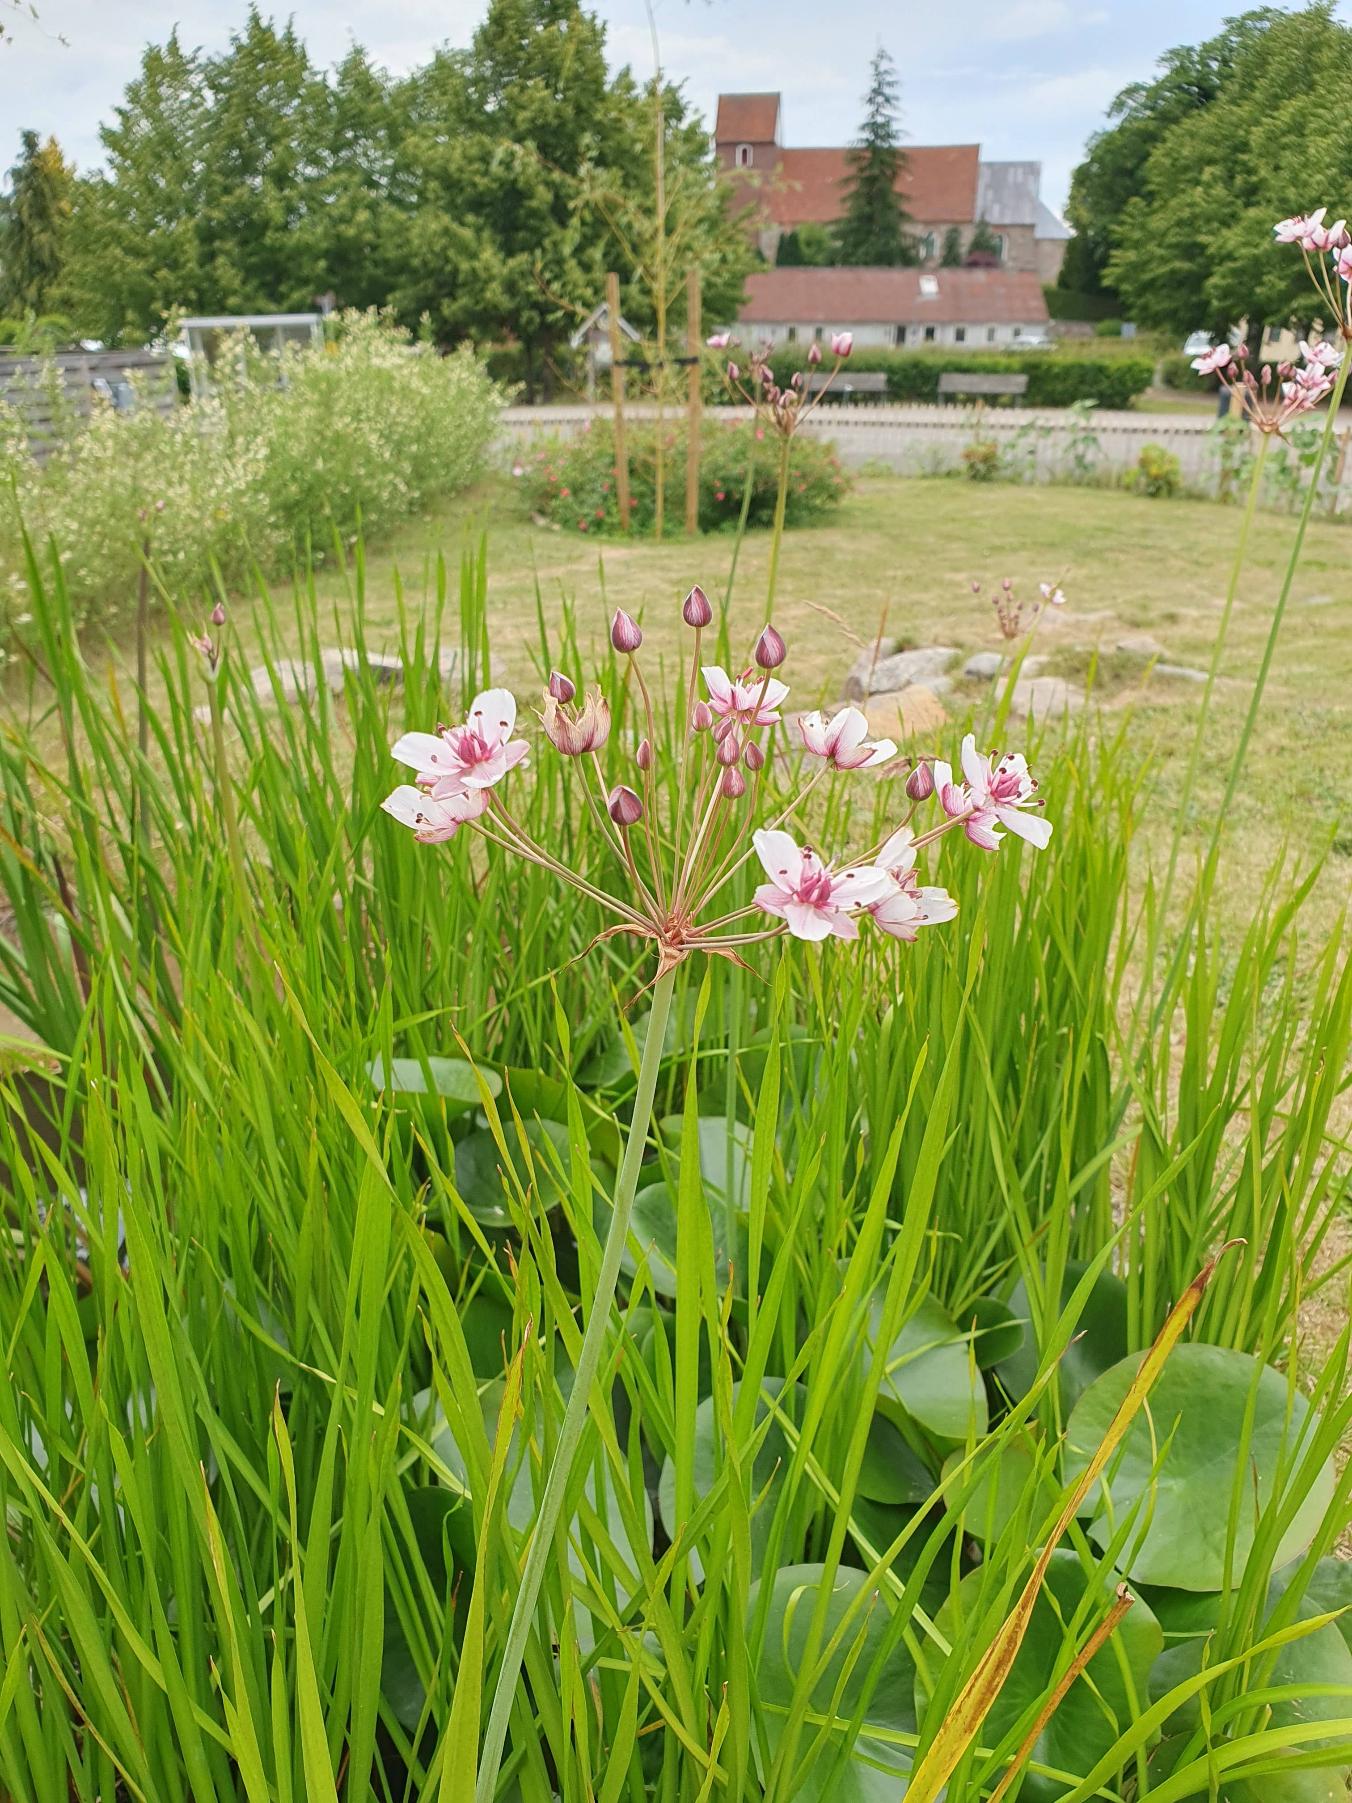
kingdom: Plantae
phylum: Tracheophyta
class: Liliopsida
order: Alismatales
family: Butomaceae
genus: Butomus
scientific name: Butomus umbellatus
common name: Brudelys
